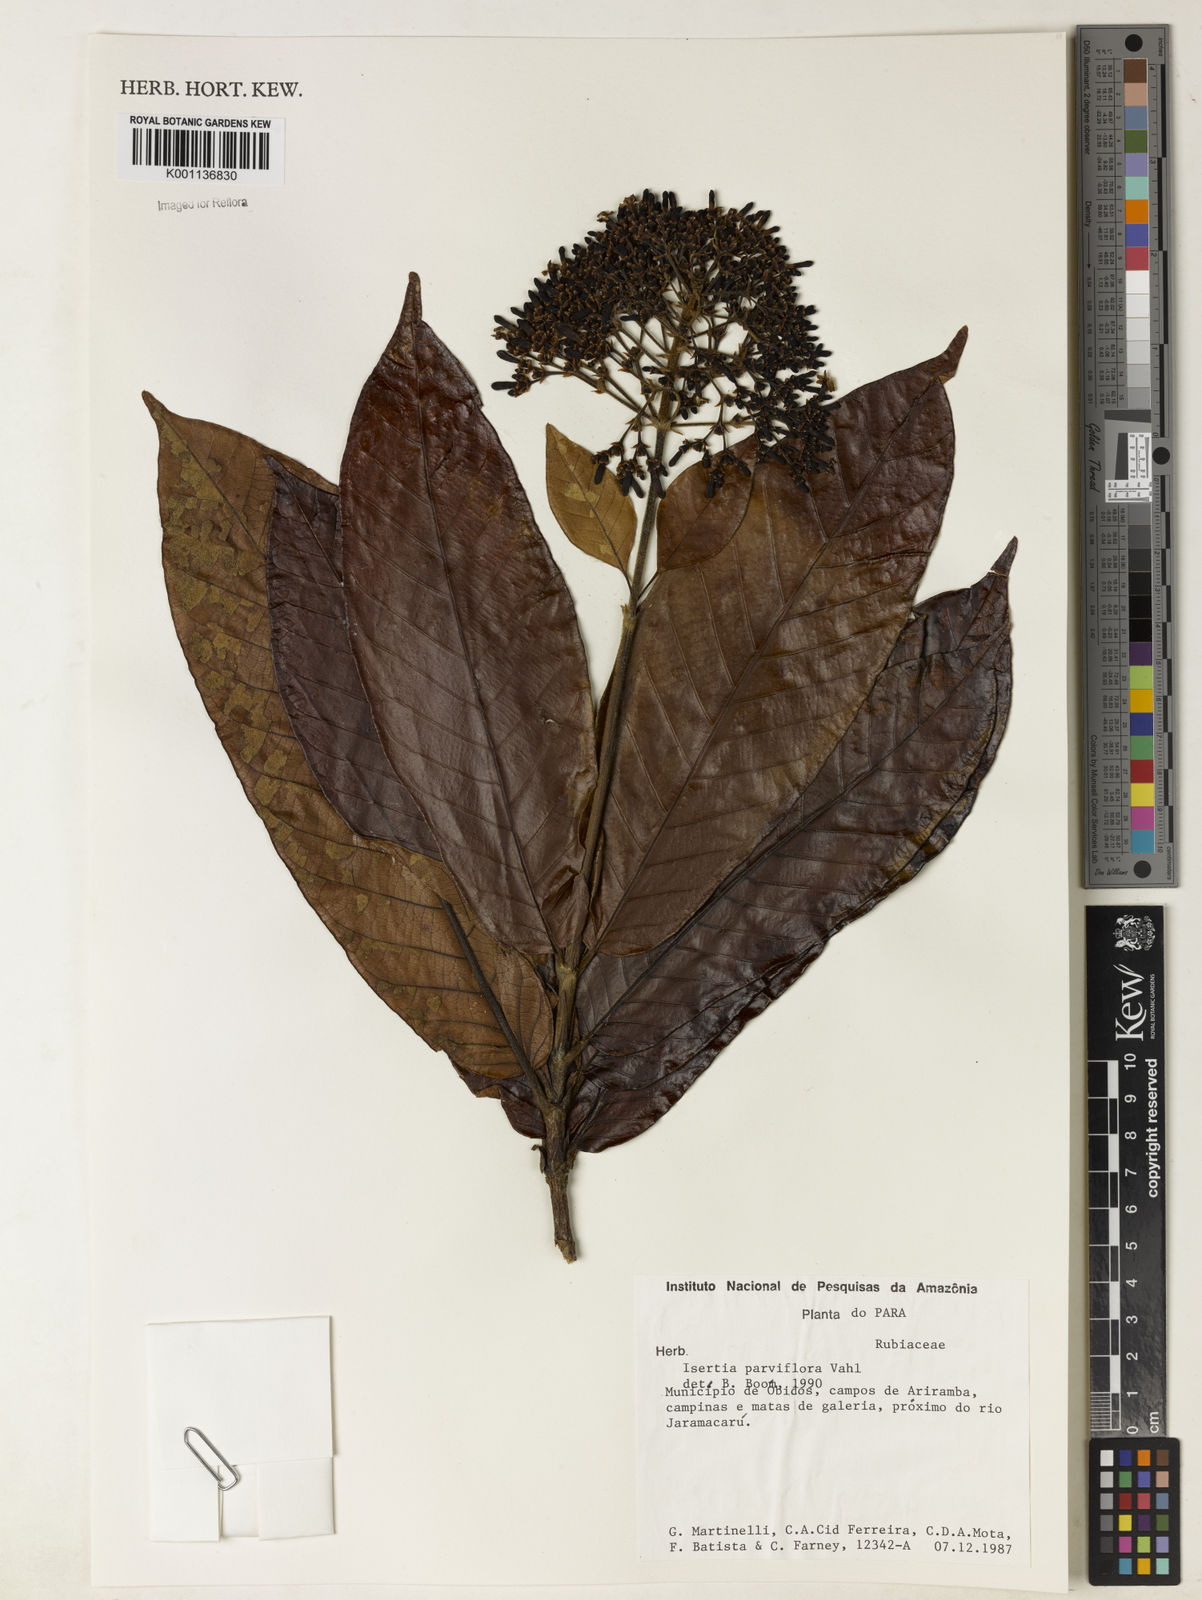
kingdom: Plantae
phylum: Tracheophyta
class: Magnoliopsida
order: Gentianales
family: Rubiaceae
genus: Isertia
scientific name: Isertia parviflora
